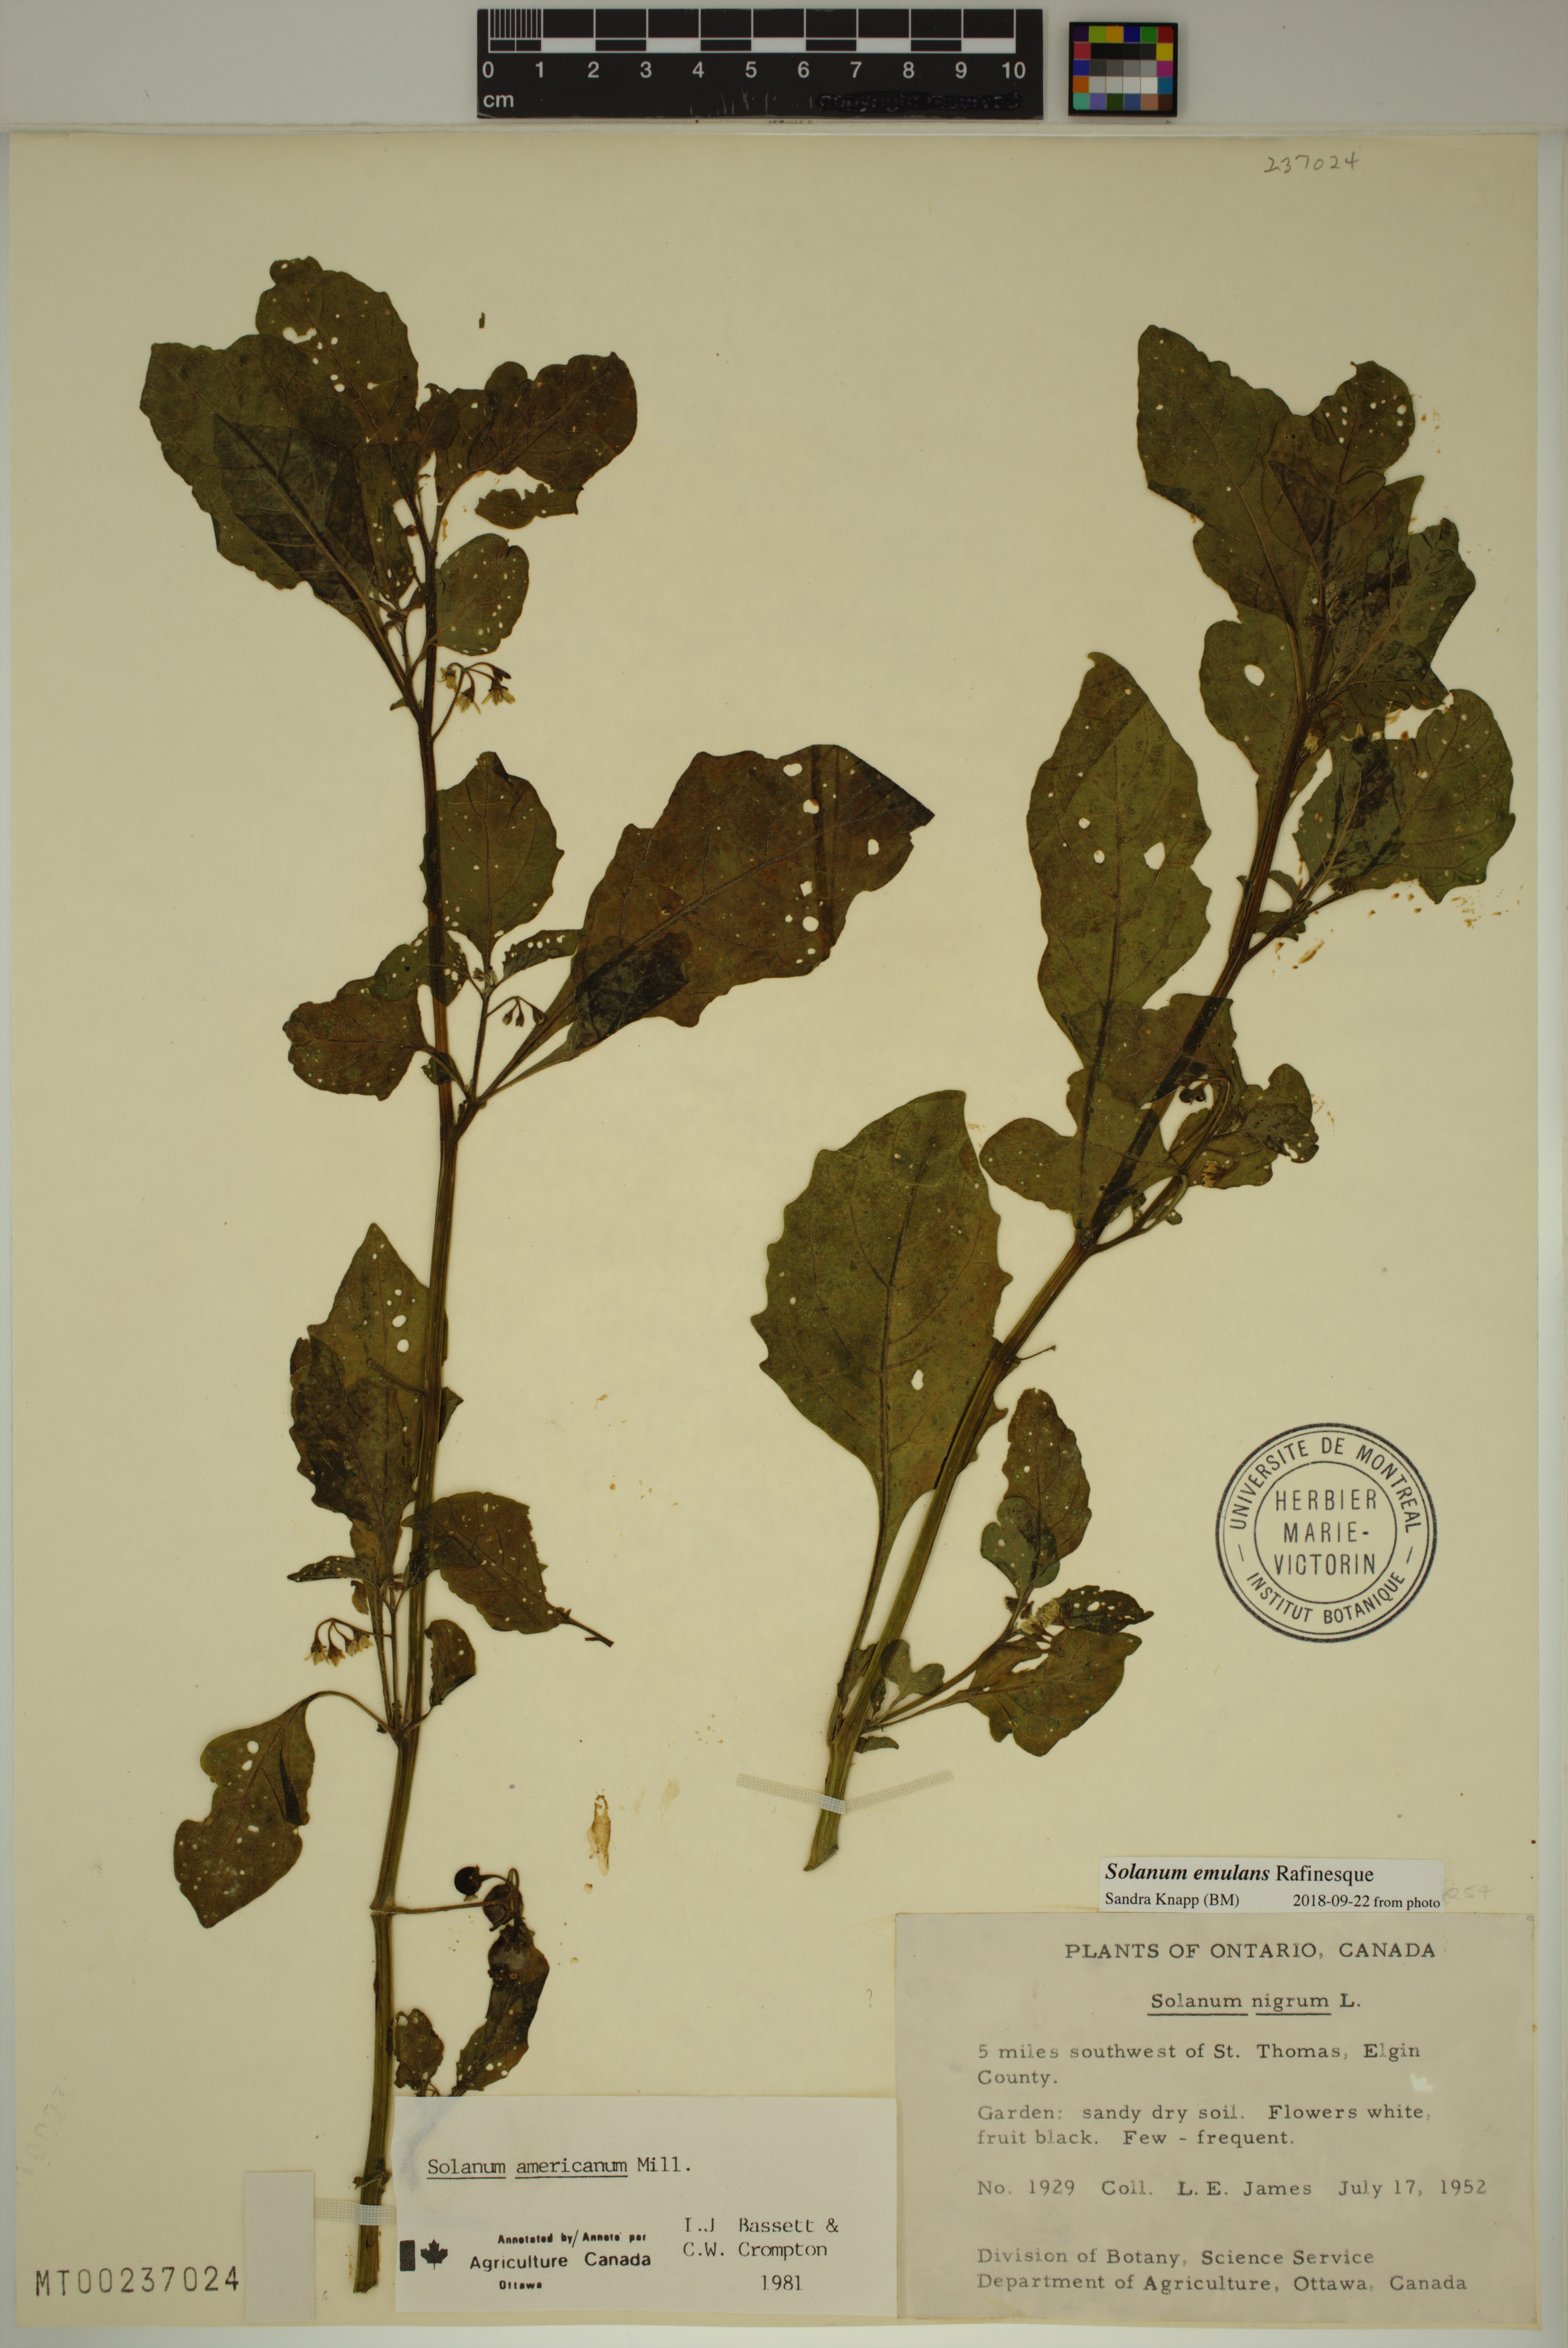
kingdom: Plantae
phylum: Tracheophyta
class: Magnoliopsida
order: Solanales
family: Solanaceae
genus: Solanum
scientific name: Solanum emulans
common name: Eastern black nightshade
